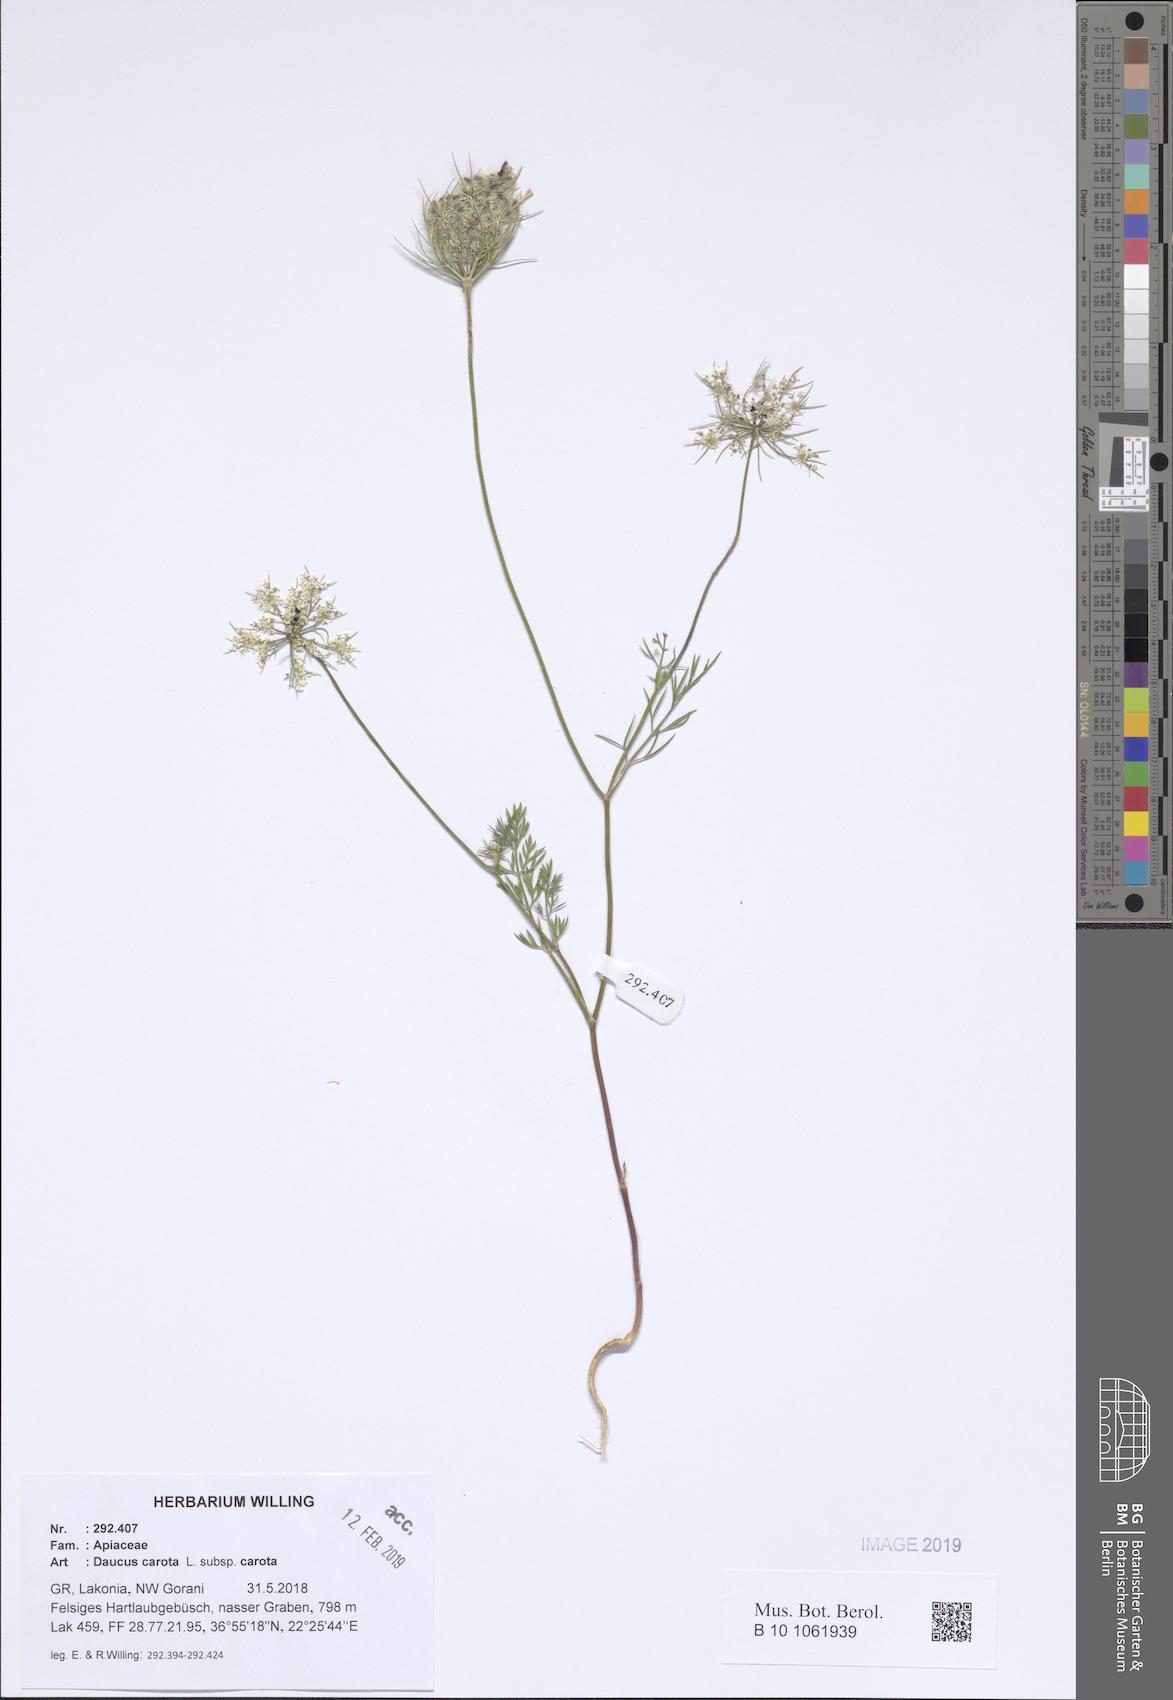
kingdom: Plantae
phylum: Tracheophyta
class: Magnoliopsida
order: Apiales
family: Apiaceae
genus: Daucus
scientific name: Daucus carota
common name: Wild carrot
